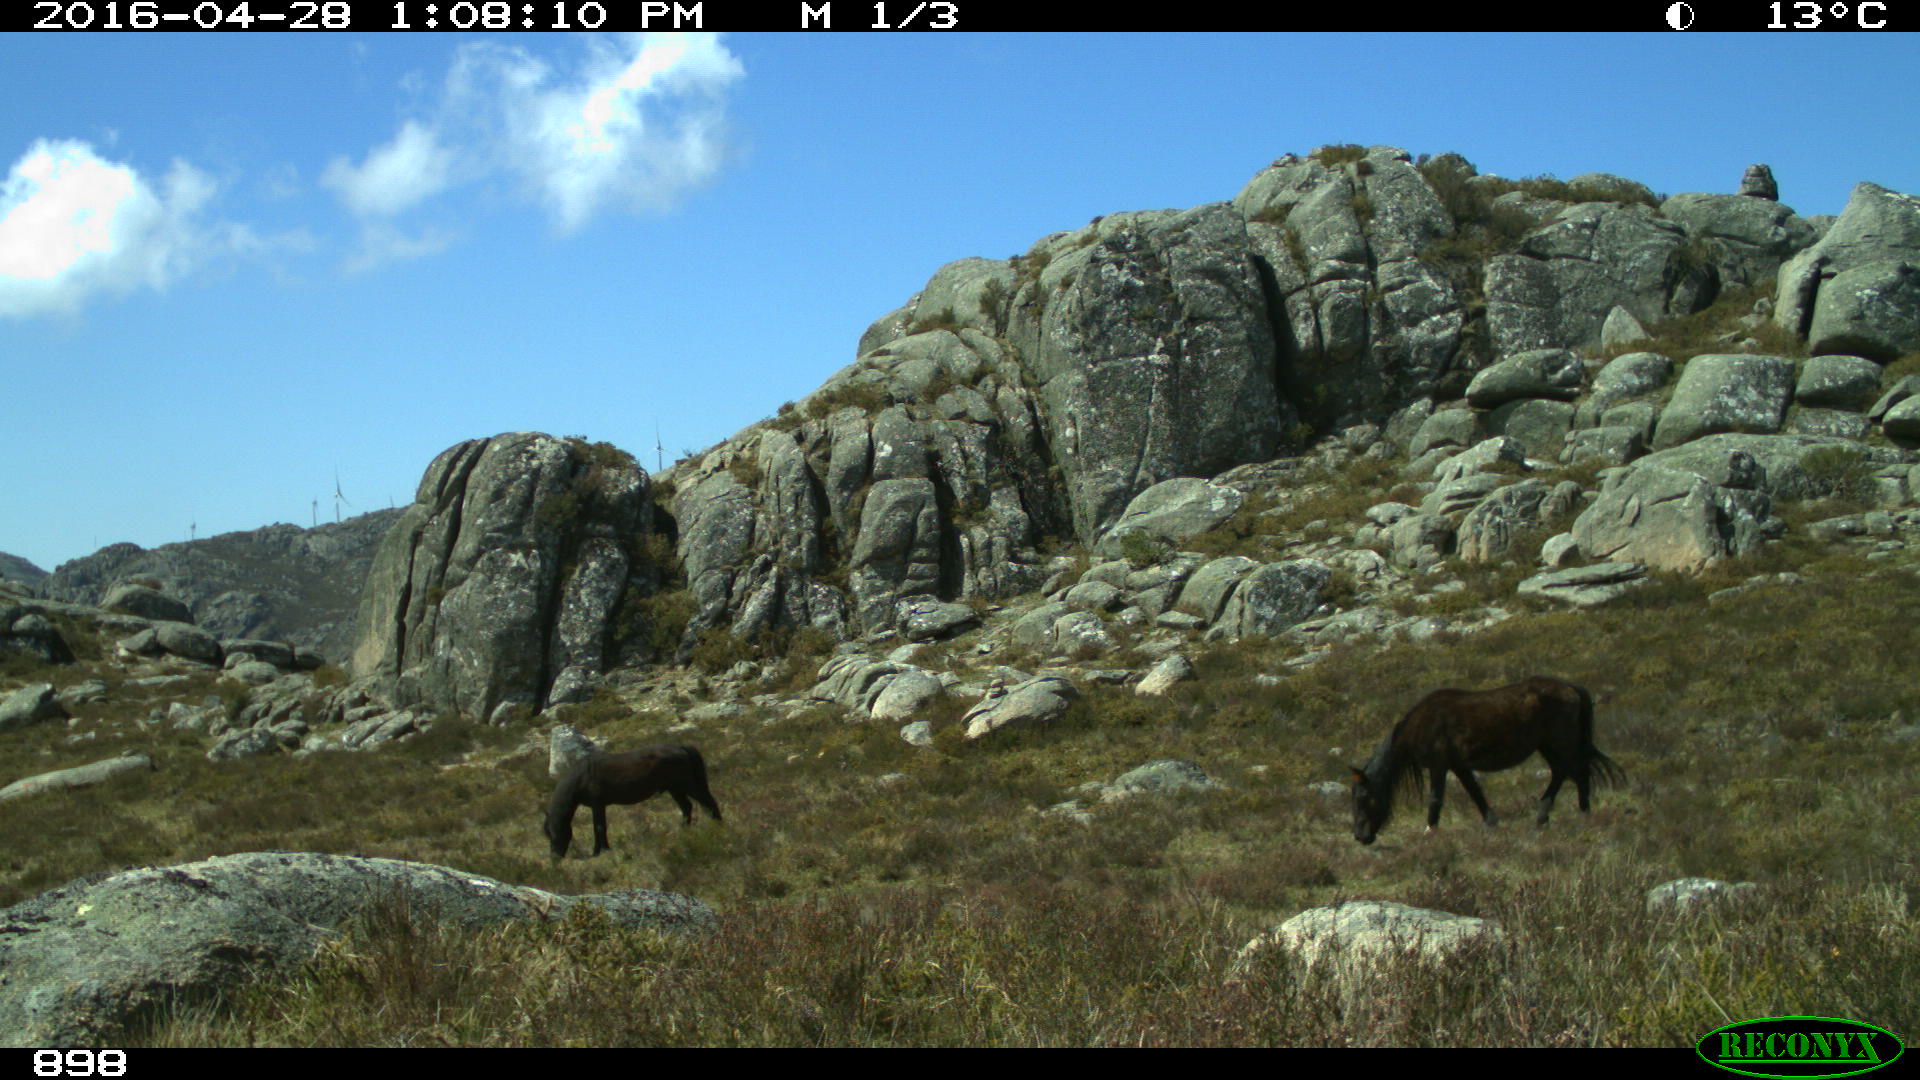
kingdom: Animalia
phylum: Chordata
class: Mammalia
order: Perissodactyla
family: Equidae
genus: Equus
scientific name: Equus caballus
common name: Horse
